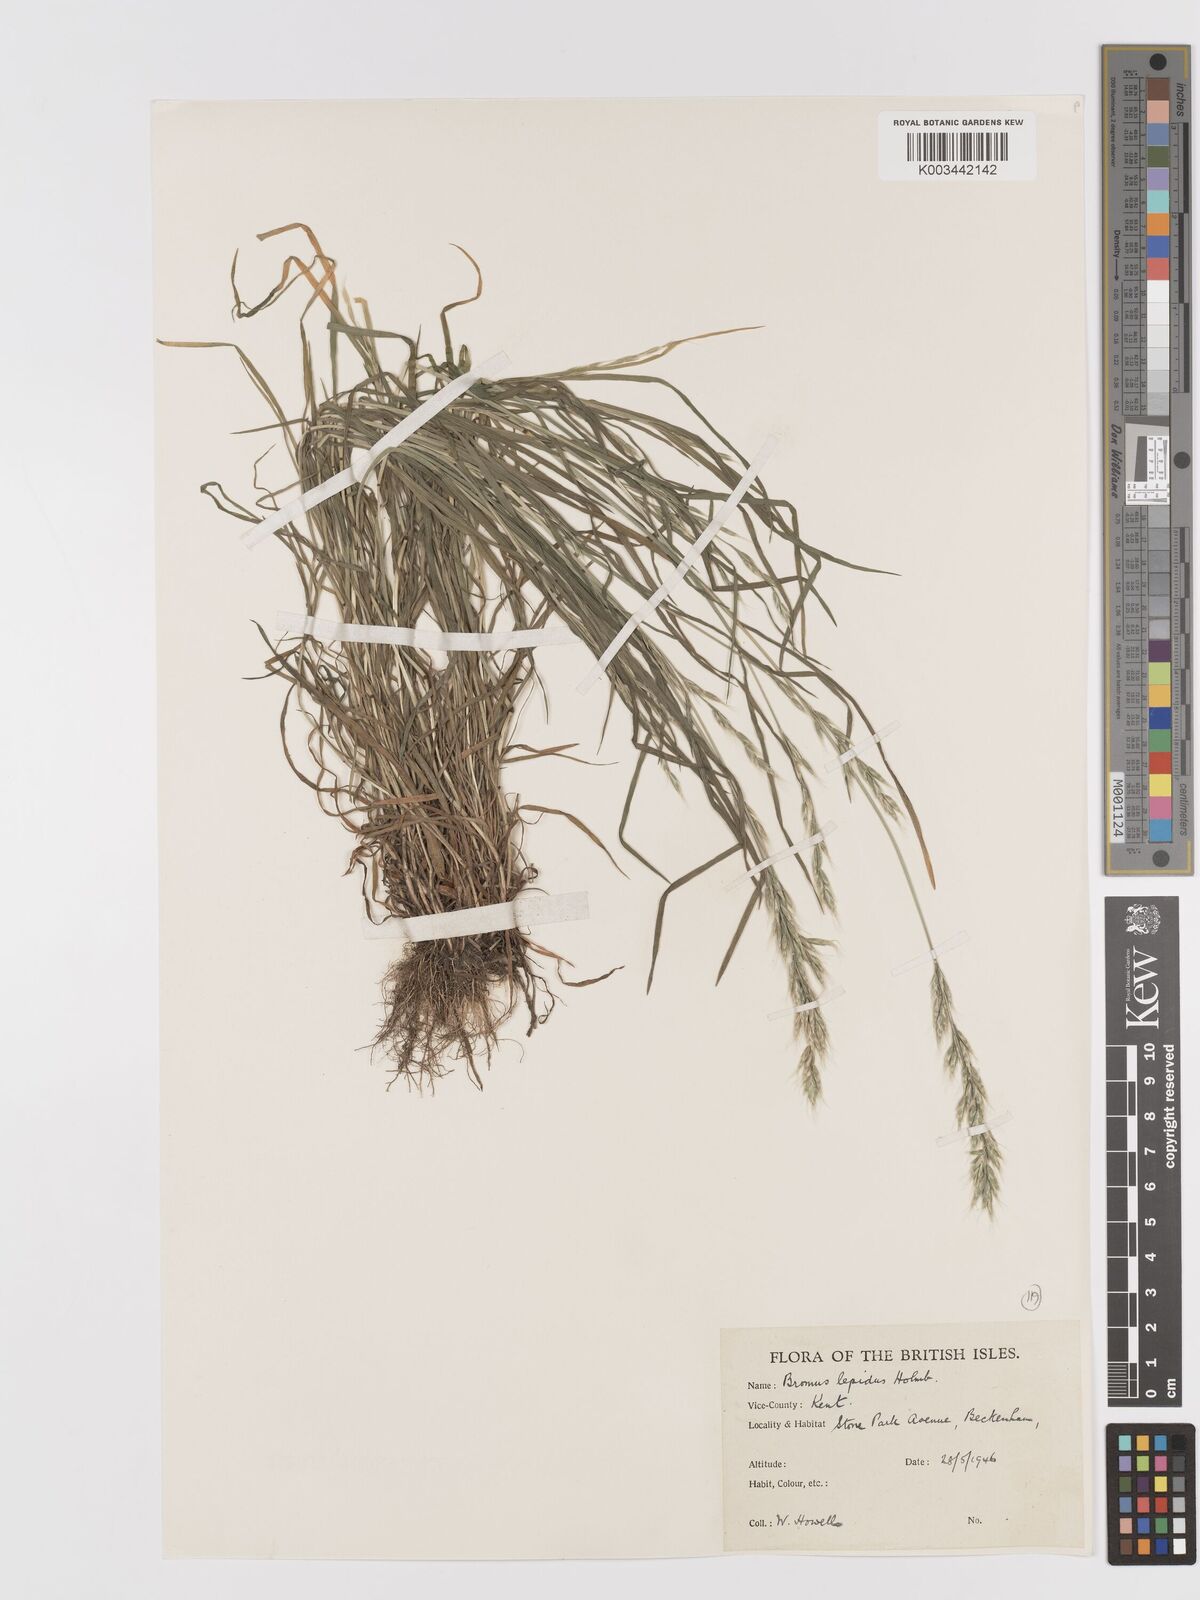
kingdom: Plantae
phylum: Tracheophyta
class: Liliopsida
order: Poales
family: Poaceae
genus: Bromus
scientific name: Bromus lepidus
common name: Slender soft-brome
